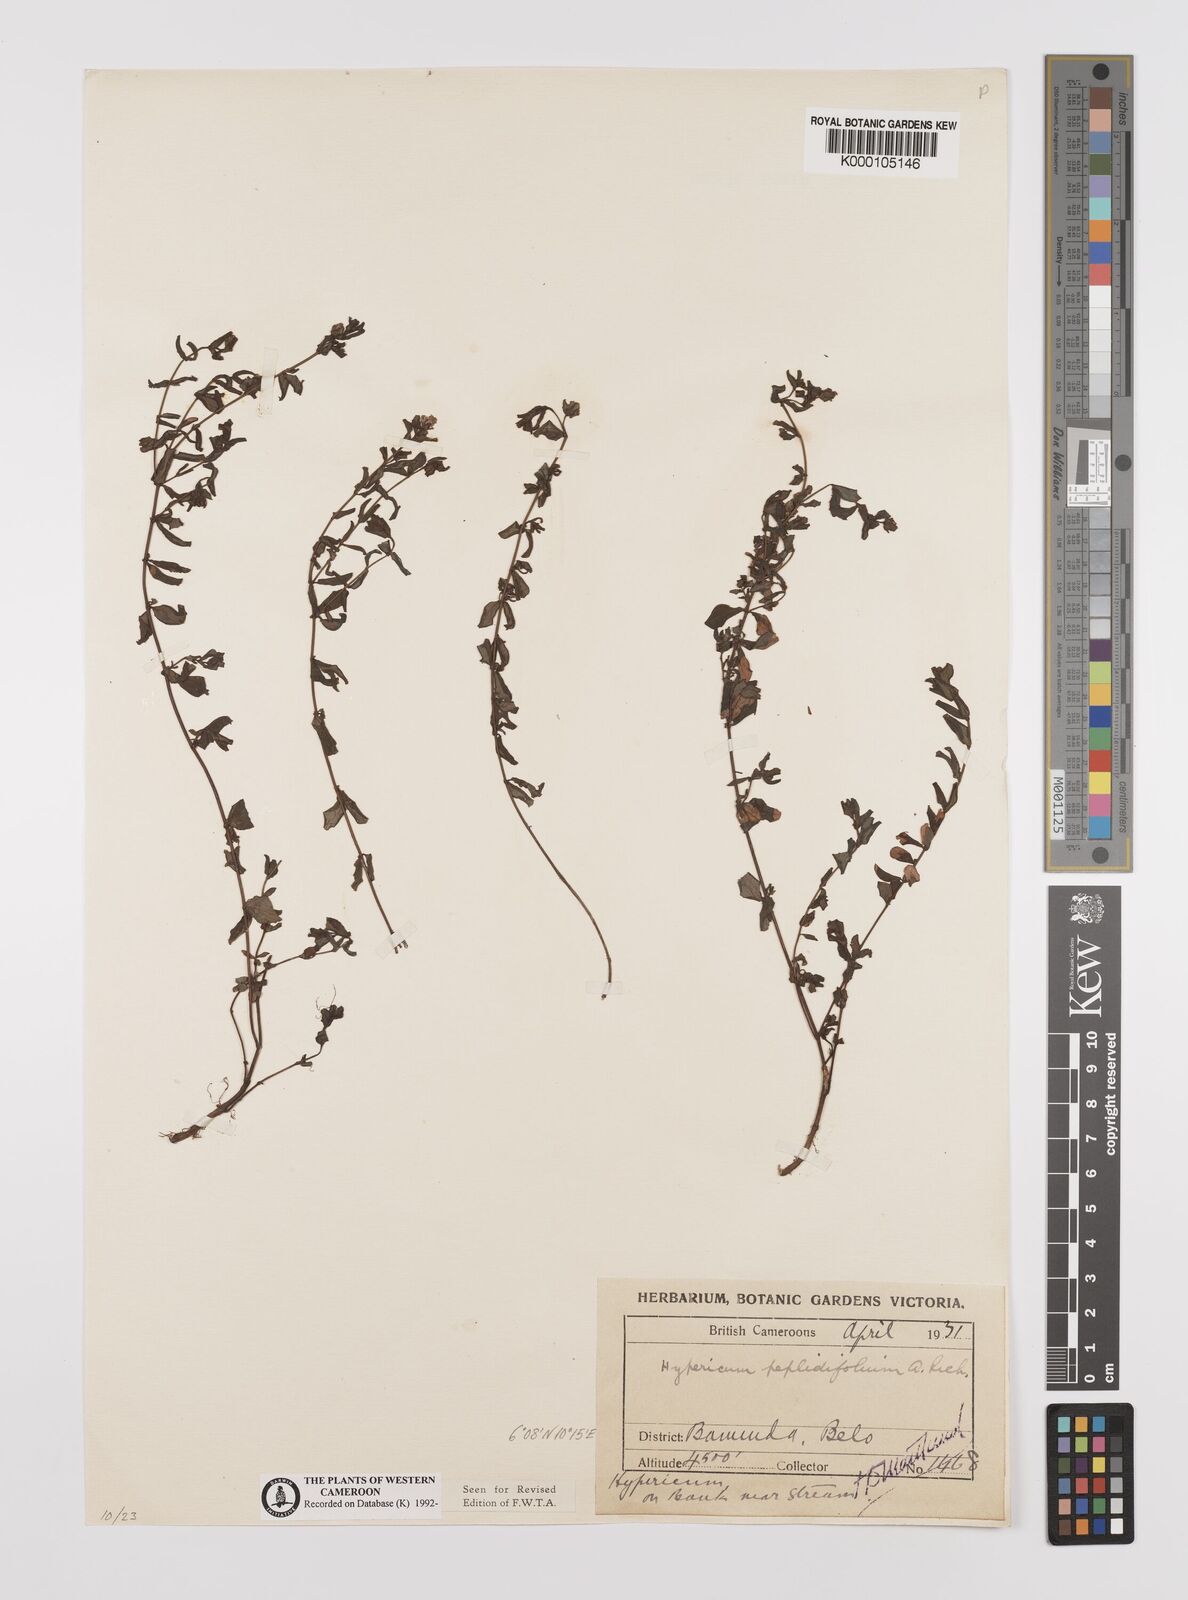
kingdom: Plantae
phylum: Tracheophyta
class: Magnoliopsida
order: Malpighiales
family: Hypericaceae
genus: Hypericum
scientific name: Hypericum peplidifolium
